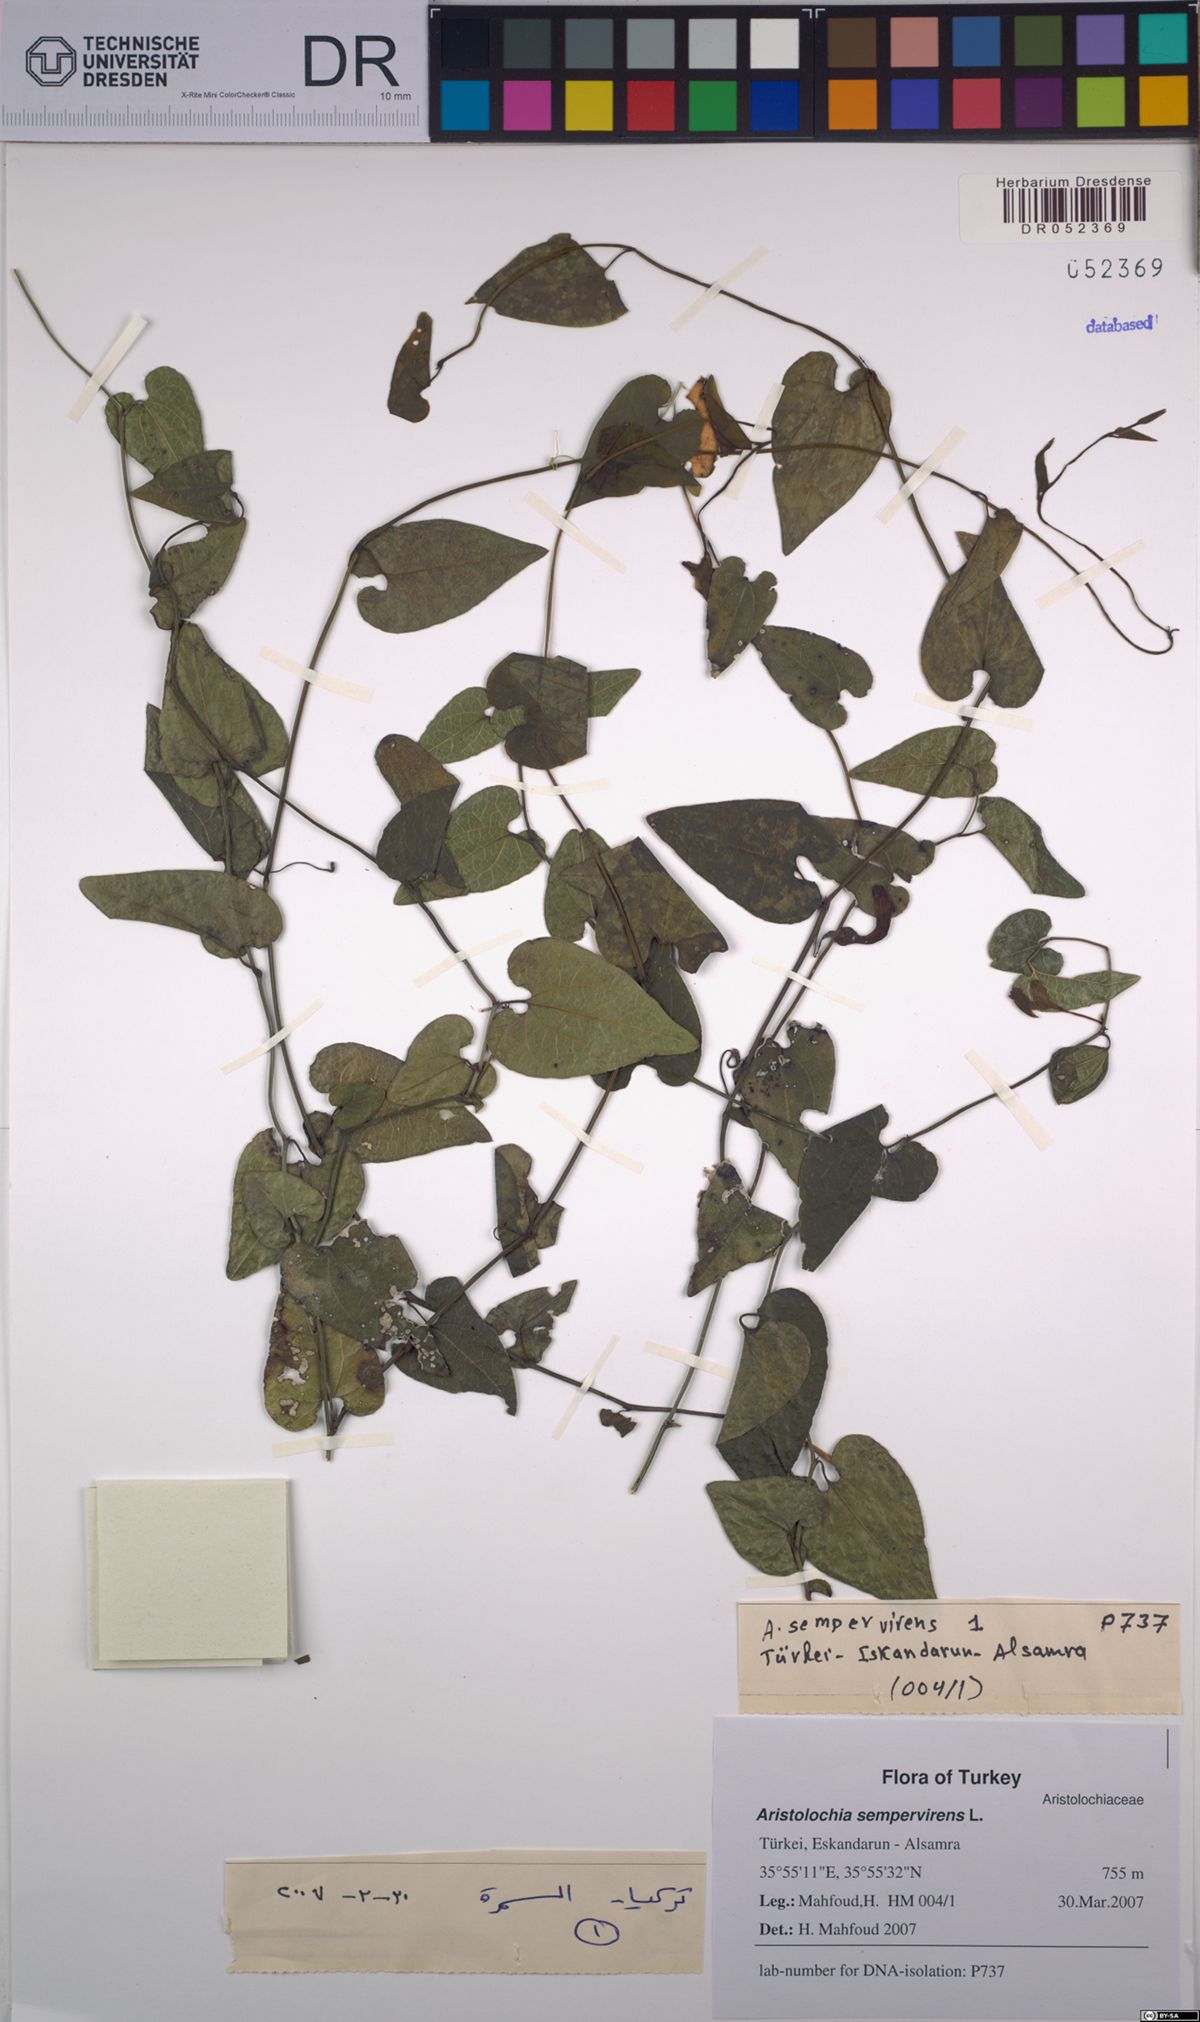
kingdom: Plantae
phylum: Tracheophyta
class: Magnoliopsida
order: Piperales
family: Aristolochiaceae
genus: Aristolochia
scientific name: Aristolochia sempervirens
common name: Long birthwort
